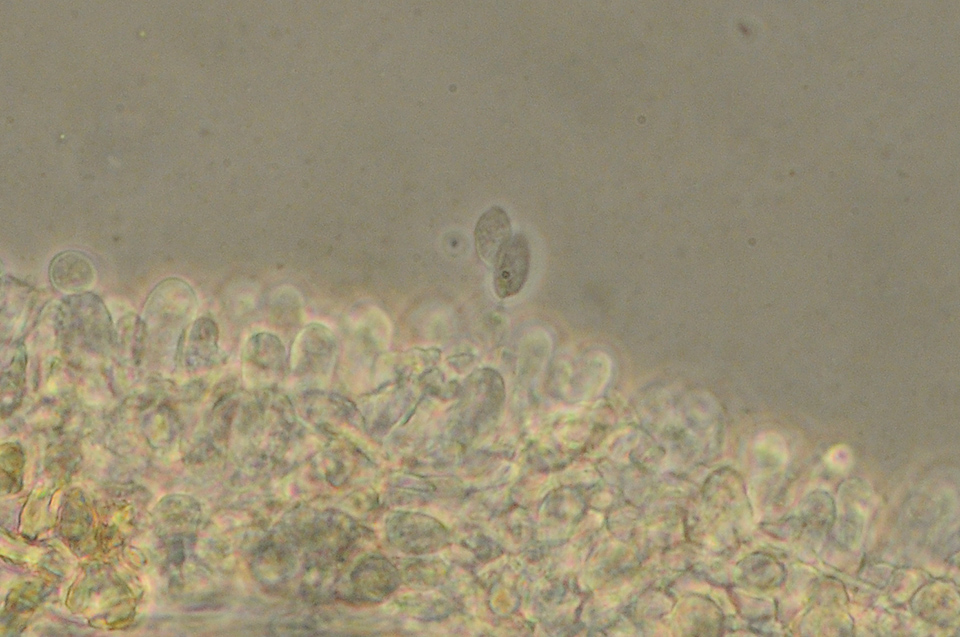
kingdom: Fungi
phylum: Basidiomycota
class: Agaricomycetes
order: Agaricales
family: Pterulaceae
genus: Pterulicium
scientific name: Pterulicium gracile
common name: trådformet fjerkølle
